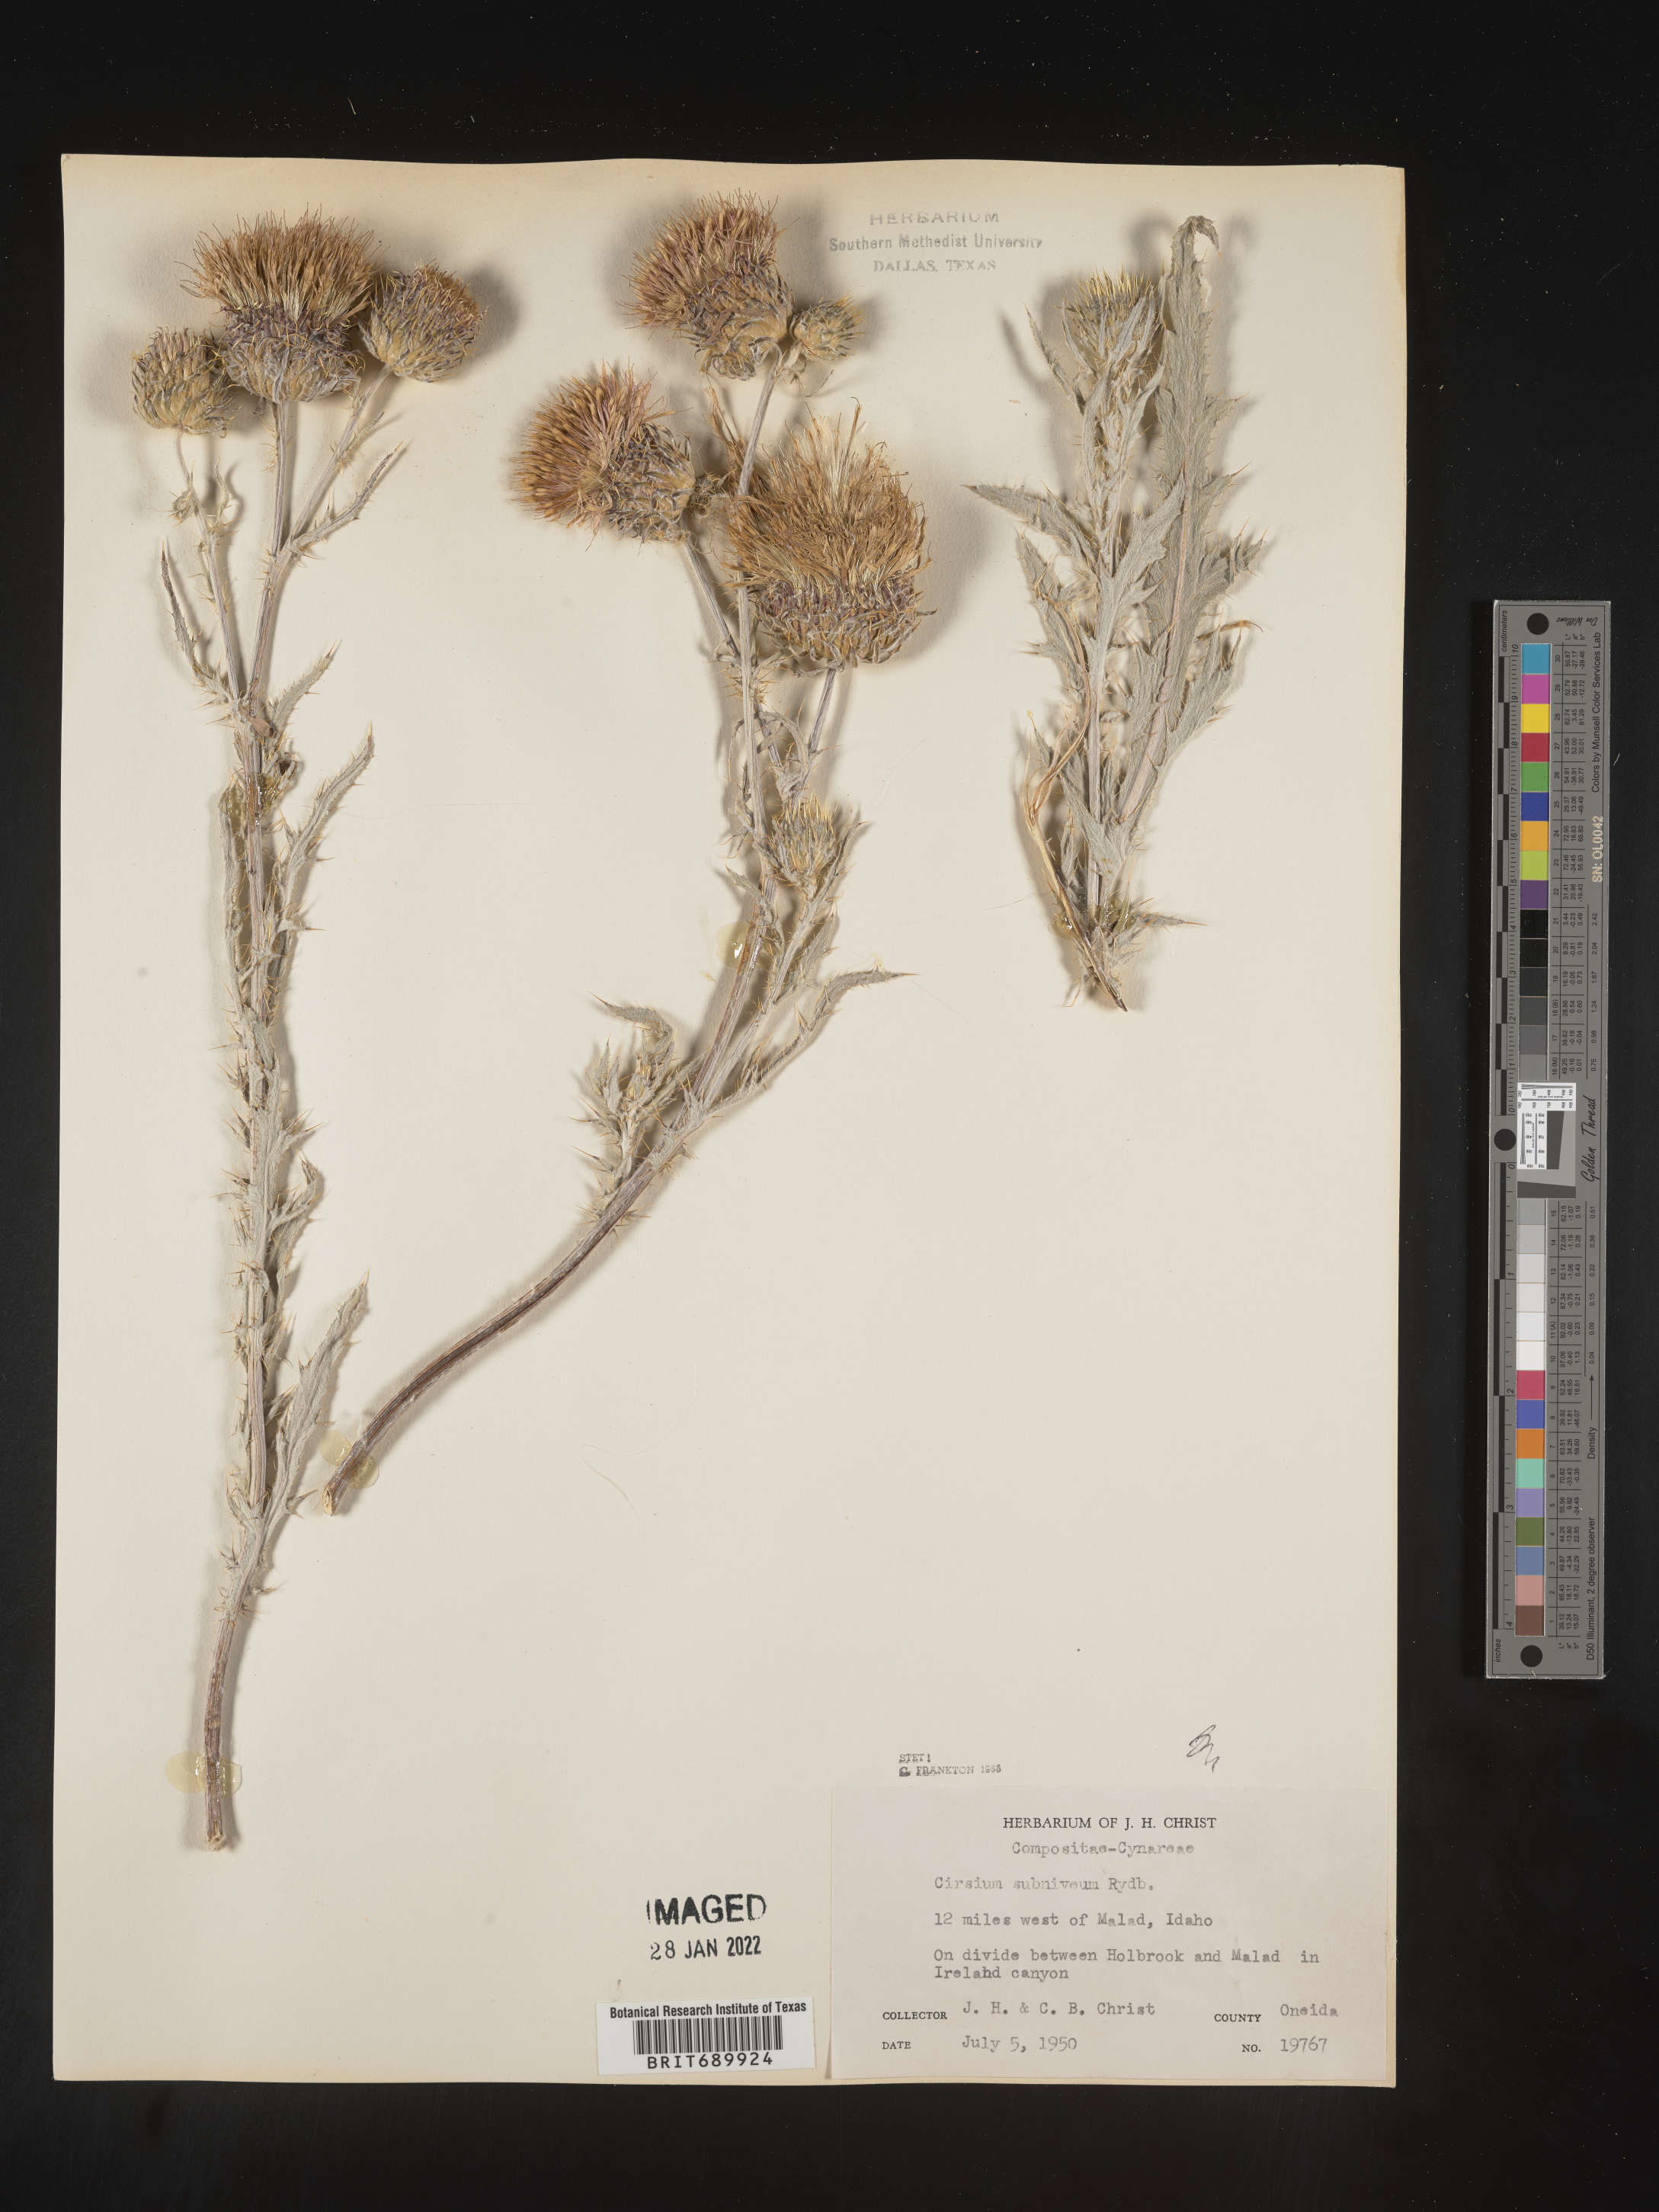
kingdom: Plantae
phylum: Tracheophyta
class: Magnoliopsida
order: Asterales
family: Asteraceae
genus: Cirsium
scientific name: Cirsium inamoenum
